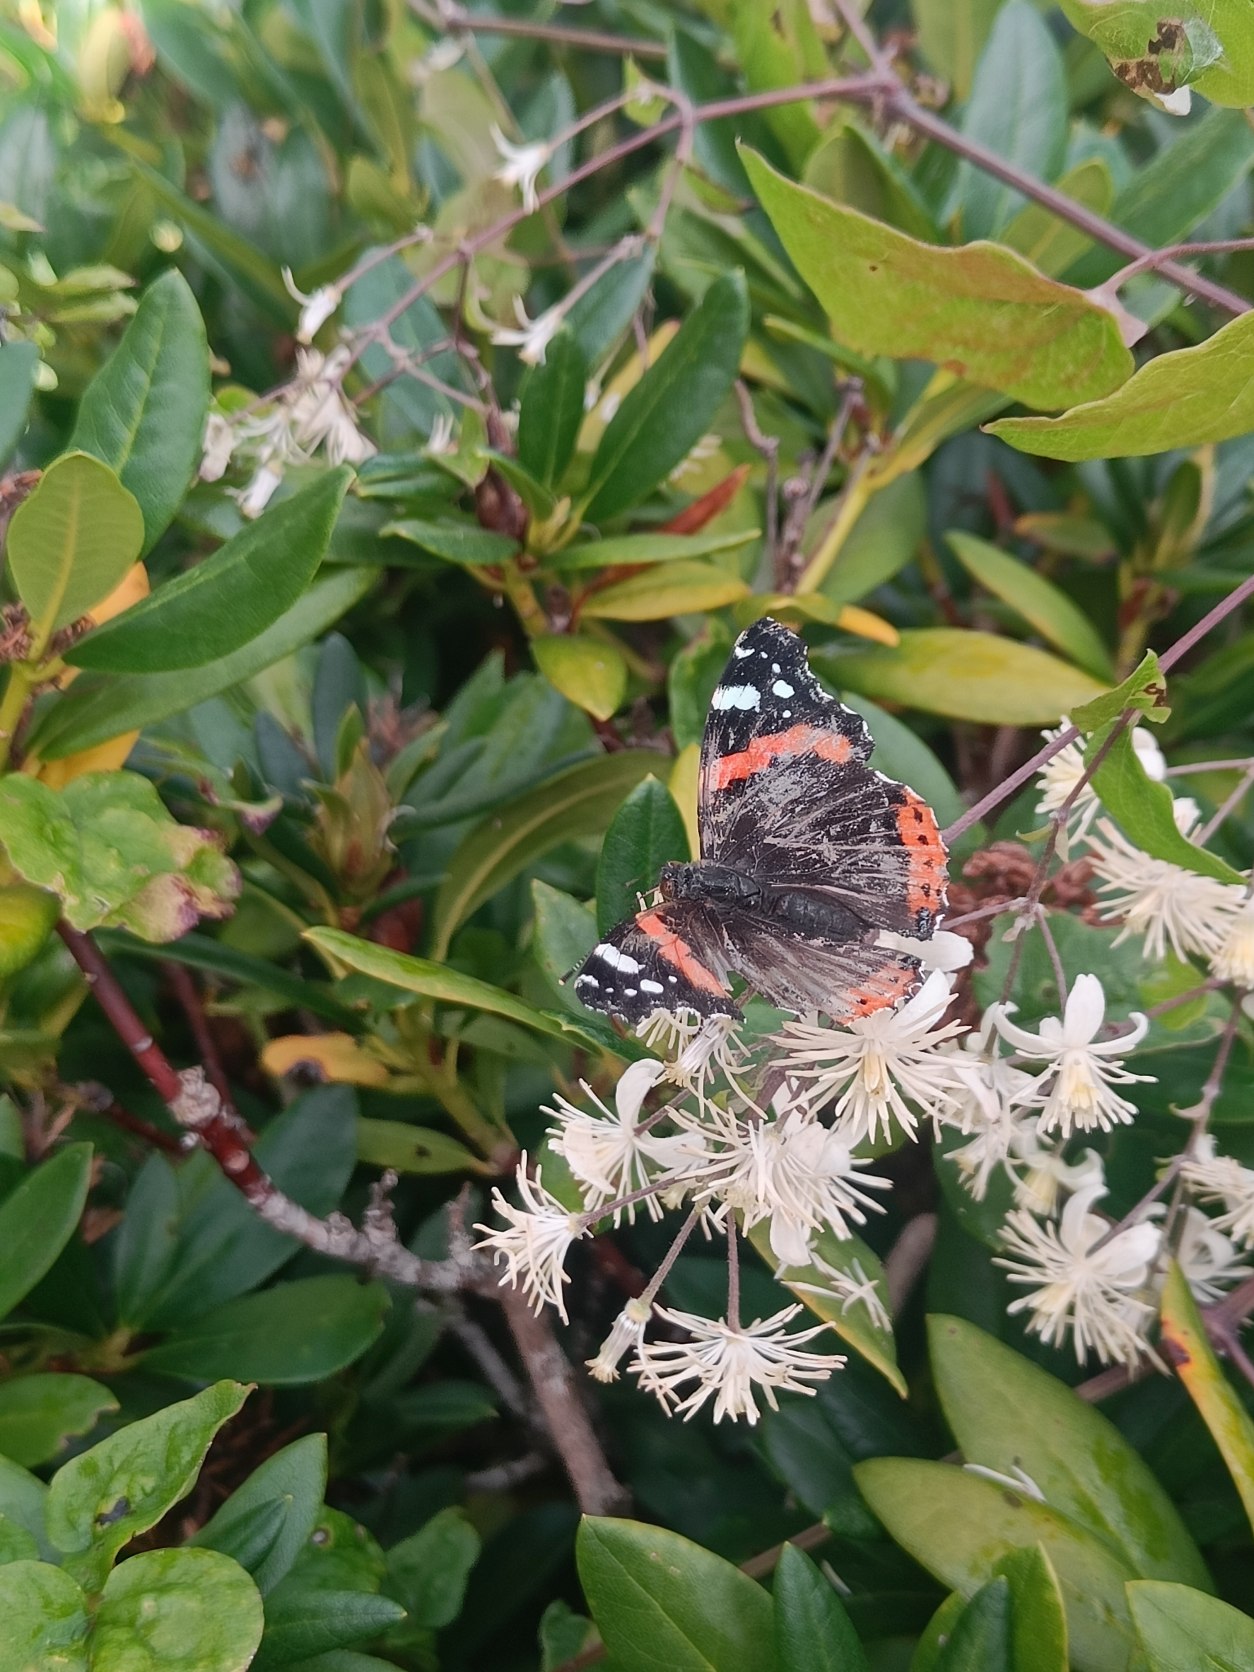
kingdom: Animalia
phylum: Arthropoda
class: Insecta
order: Lepidoptera
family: Nymphalidae
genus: Vanessa
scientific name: Vanessa atalanta
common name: Admiral
